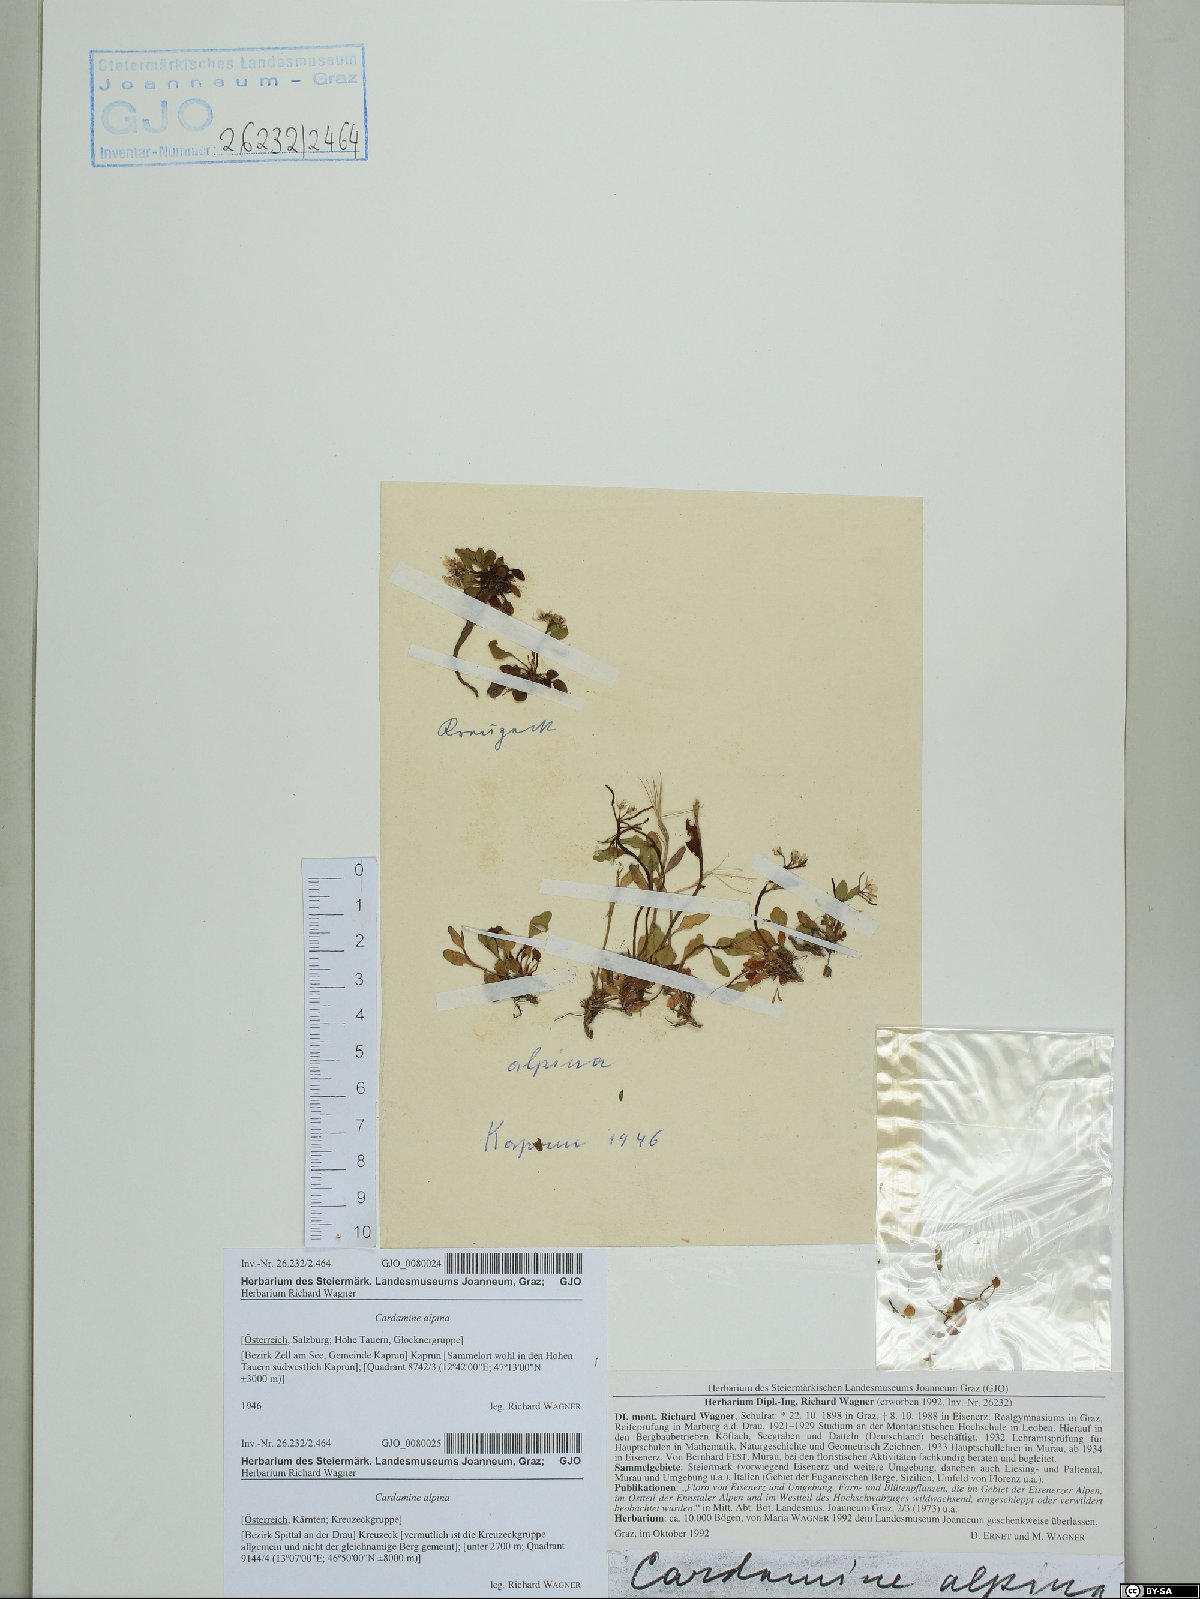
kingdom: Plantae
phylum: Tracheophyta
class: Magnoliopsida
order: Brassicales
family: Brassicaceae
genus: Cardamine
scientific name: Cardamine bellidifolia
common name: Alpine bittercress
